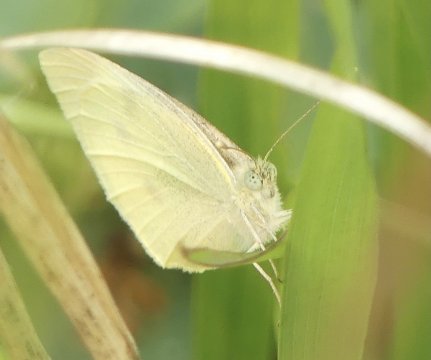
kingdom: Animalia
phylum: Arthropoda
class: Insecta
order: Lepidoptera
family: Pieridae
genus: Pieris
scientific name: Pieris rapae
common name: Cabbage White
